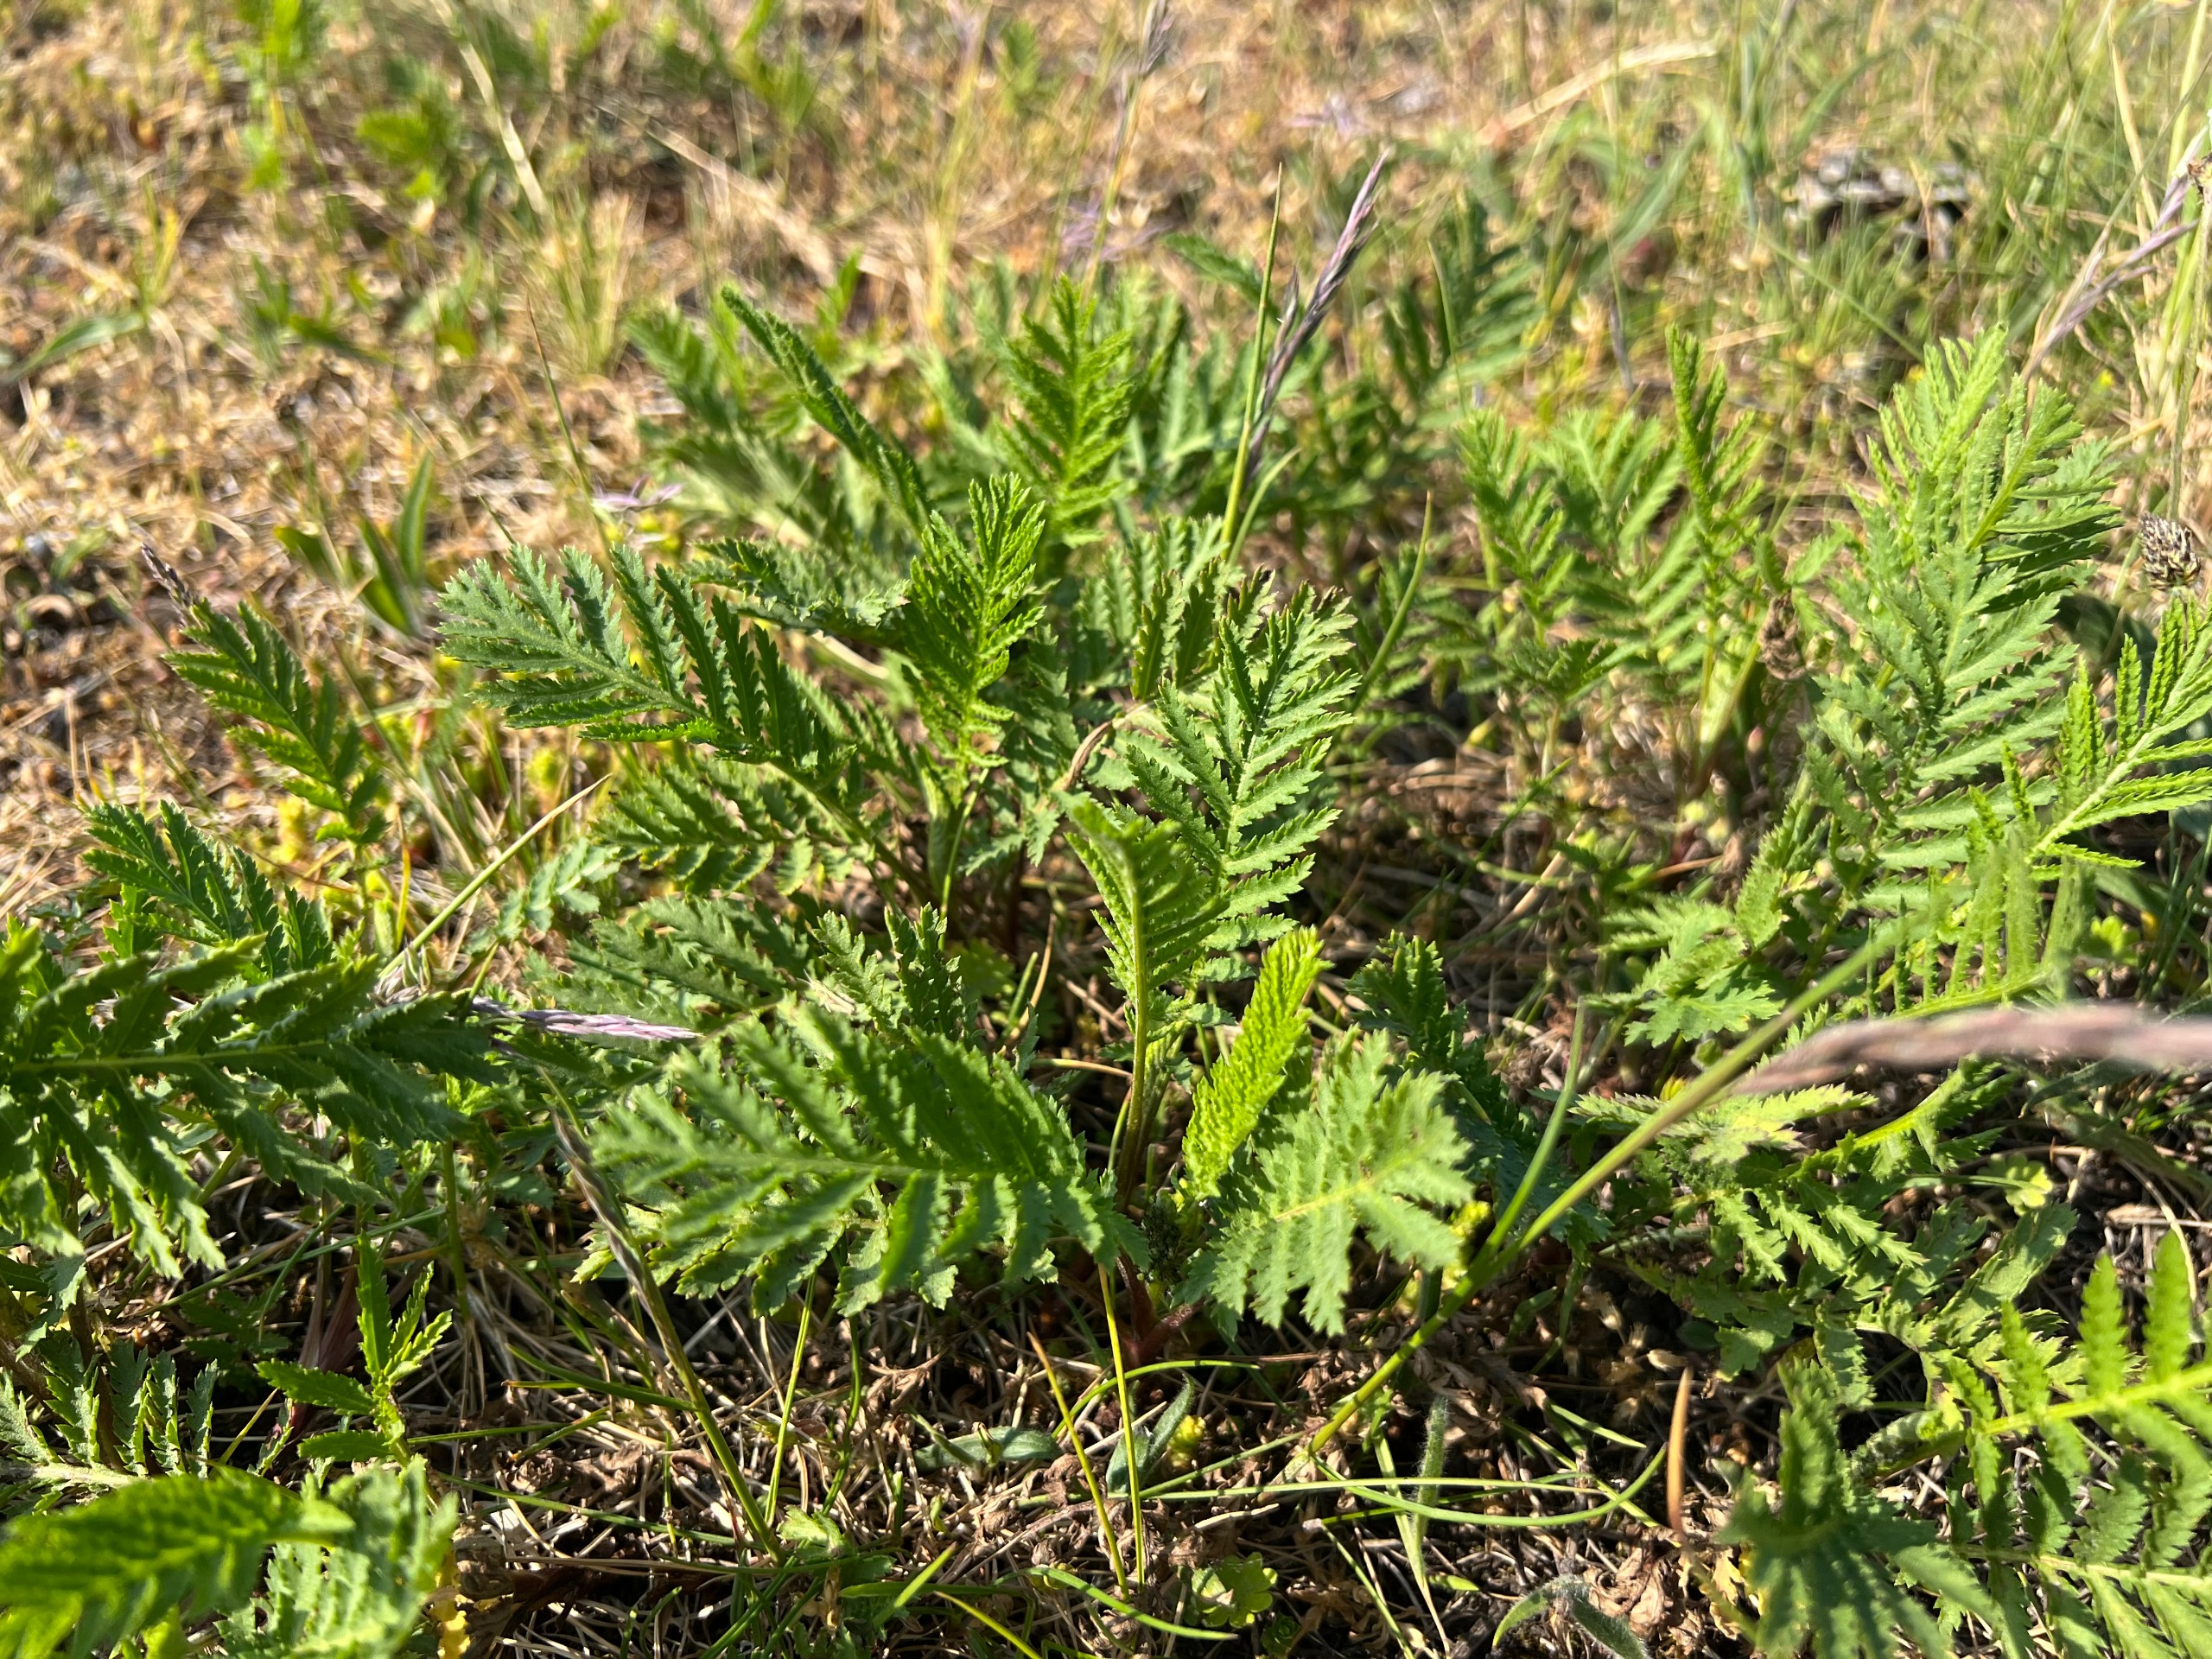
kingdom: Plantae
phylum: Tracheophyta
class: Magnoliopsida
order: Asterales
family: Asteraceae
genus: Tanacetum
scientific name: Tanacetum vulgare
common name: Rejnfan
